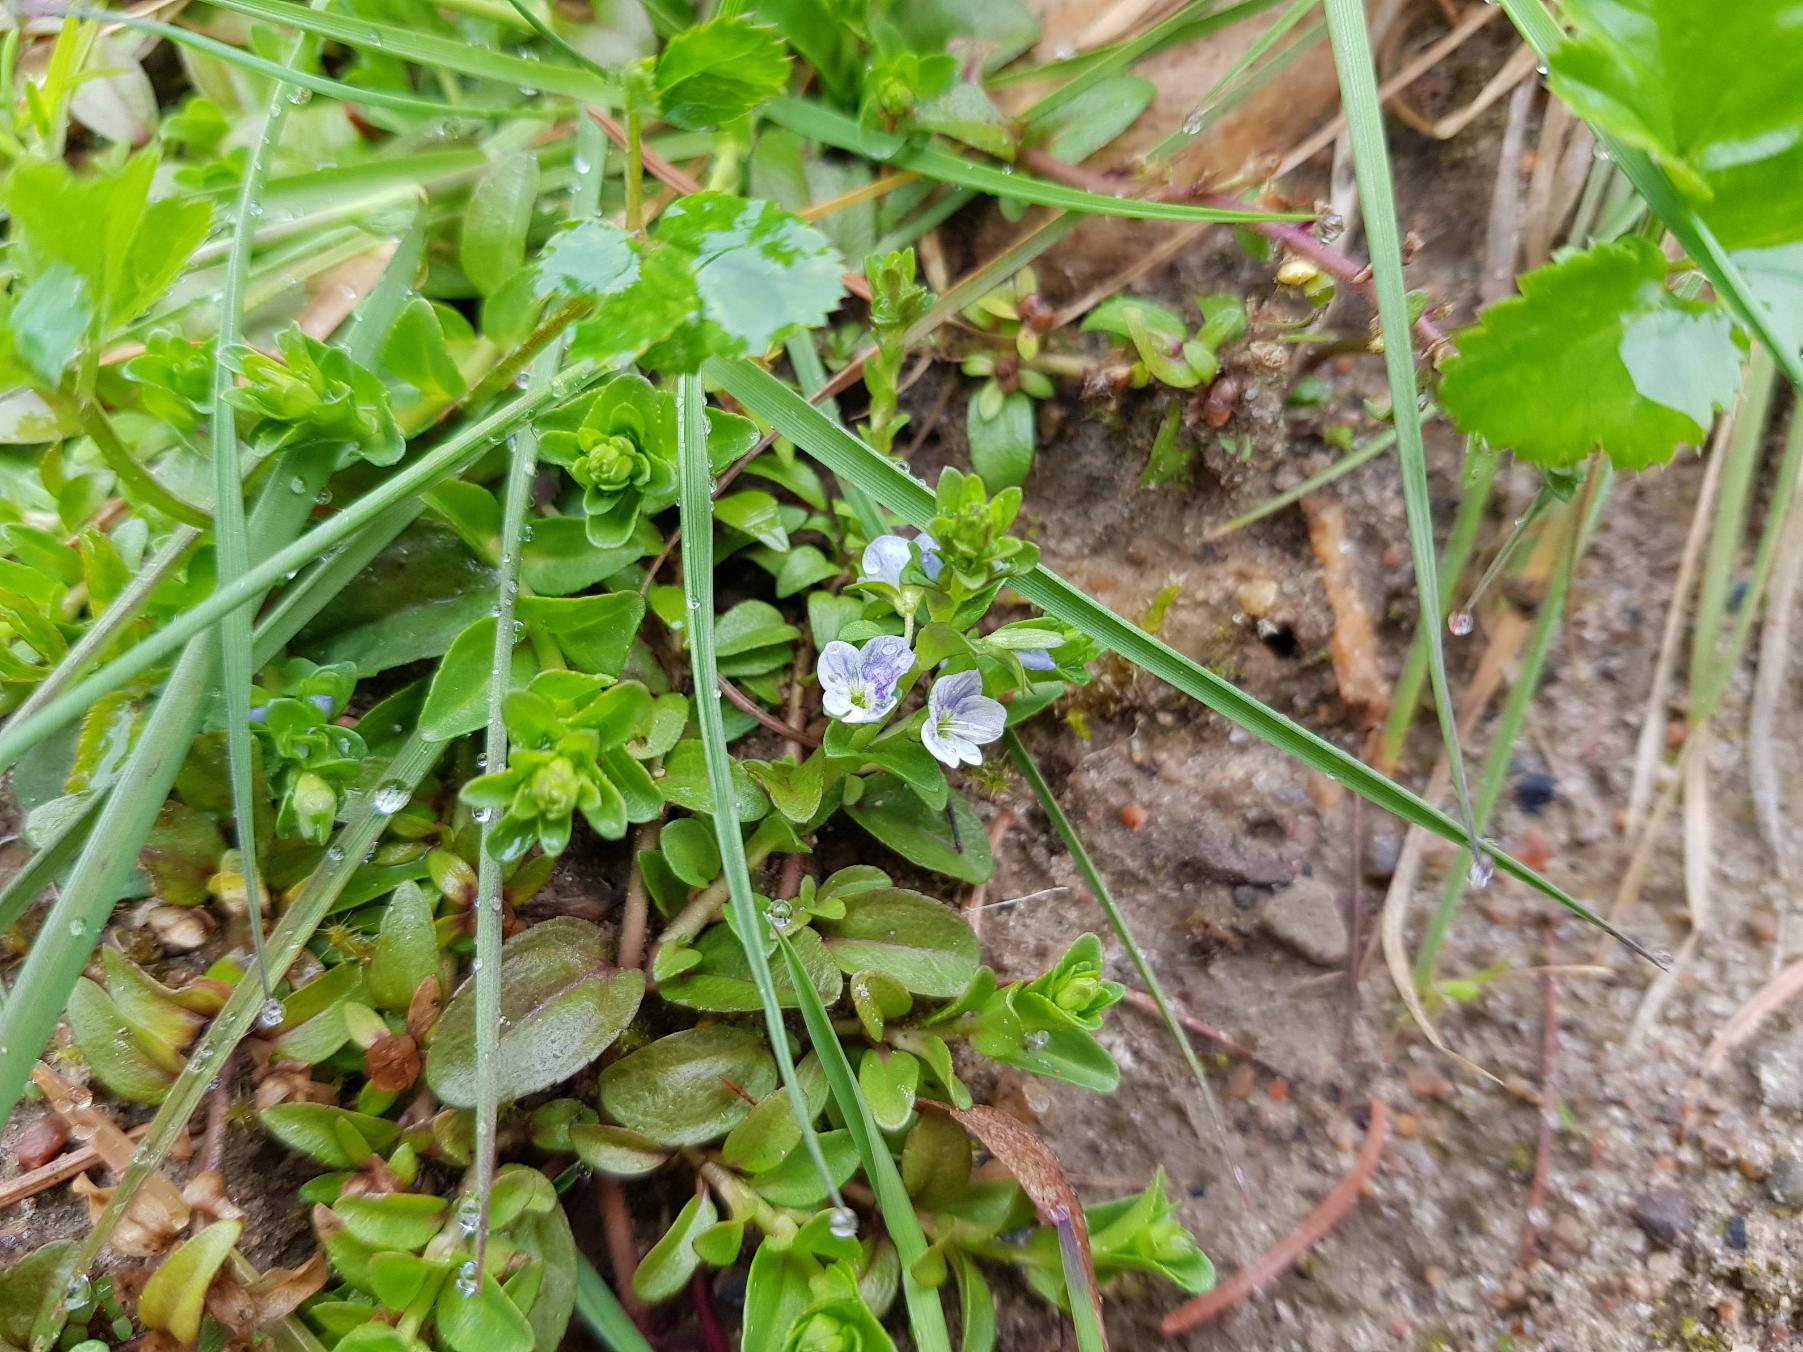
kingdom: Plantae
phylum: Tracheophyta
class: Magnoliopsida
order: Lamiales
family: Plantaginaceae
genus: Veronica
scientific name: Veronica serpyllifolia
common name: Glat ærenpris
